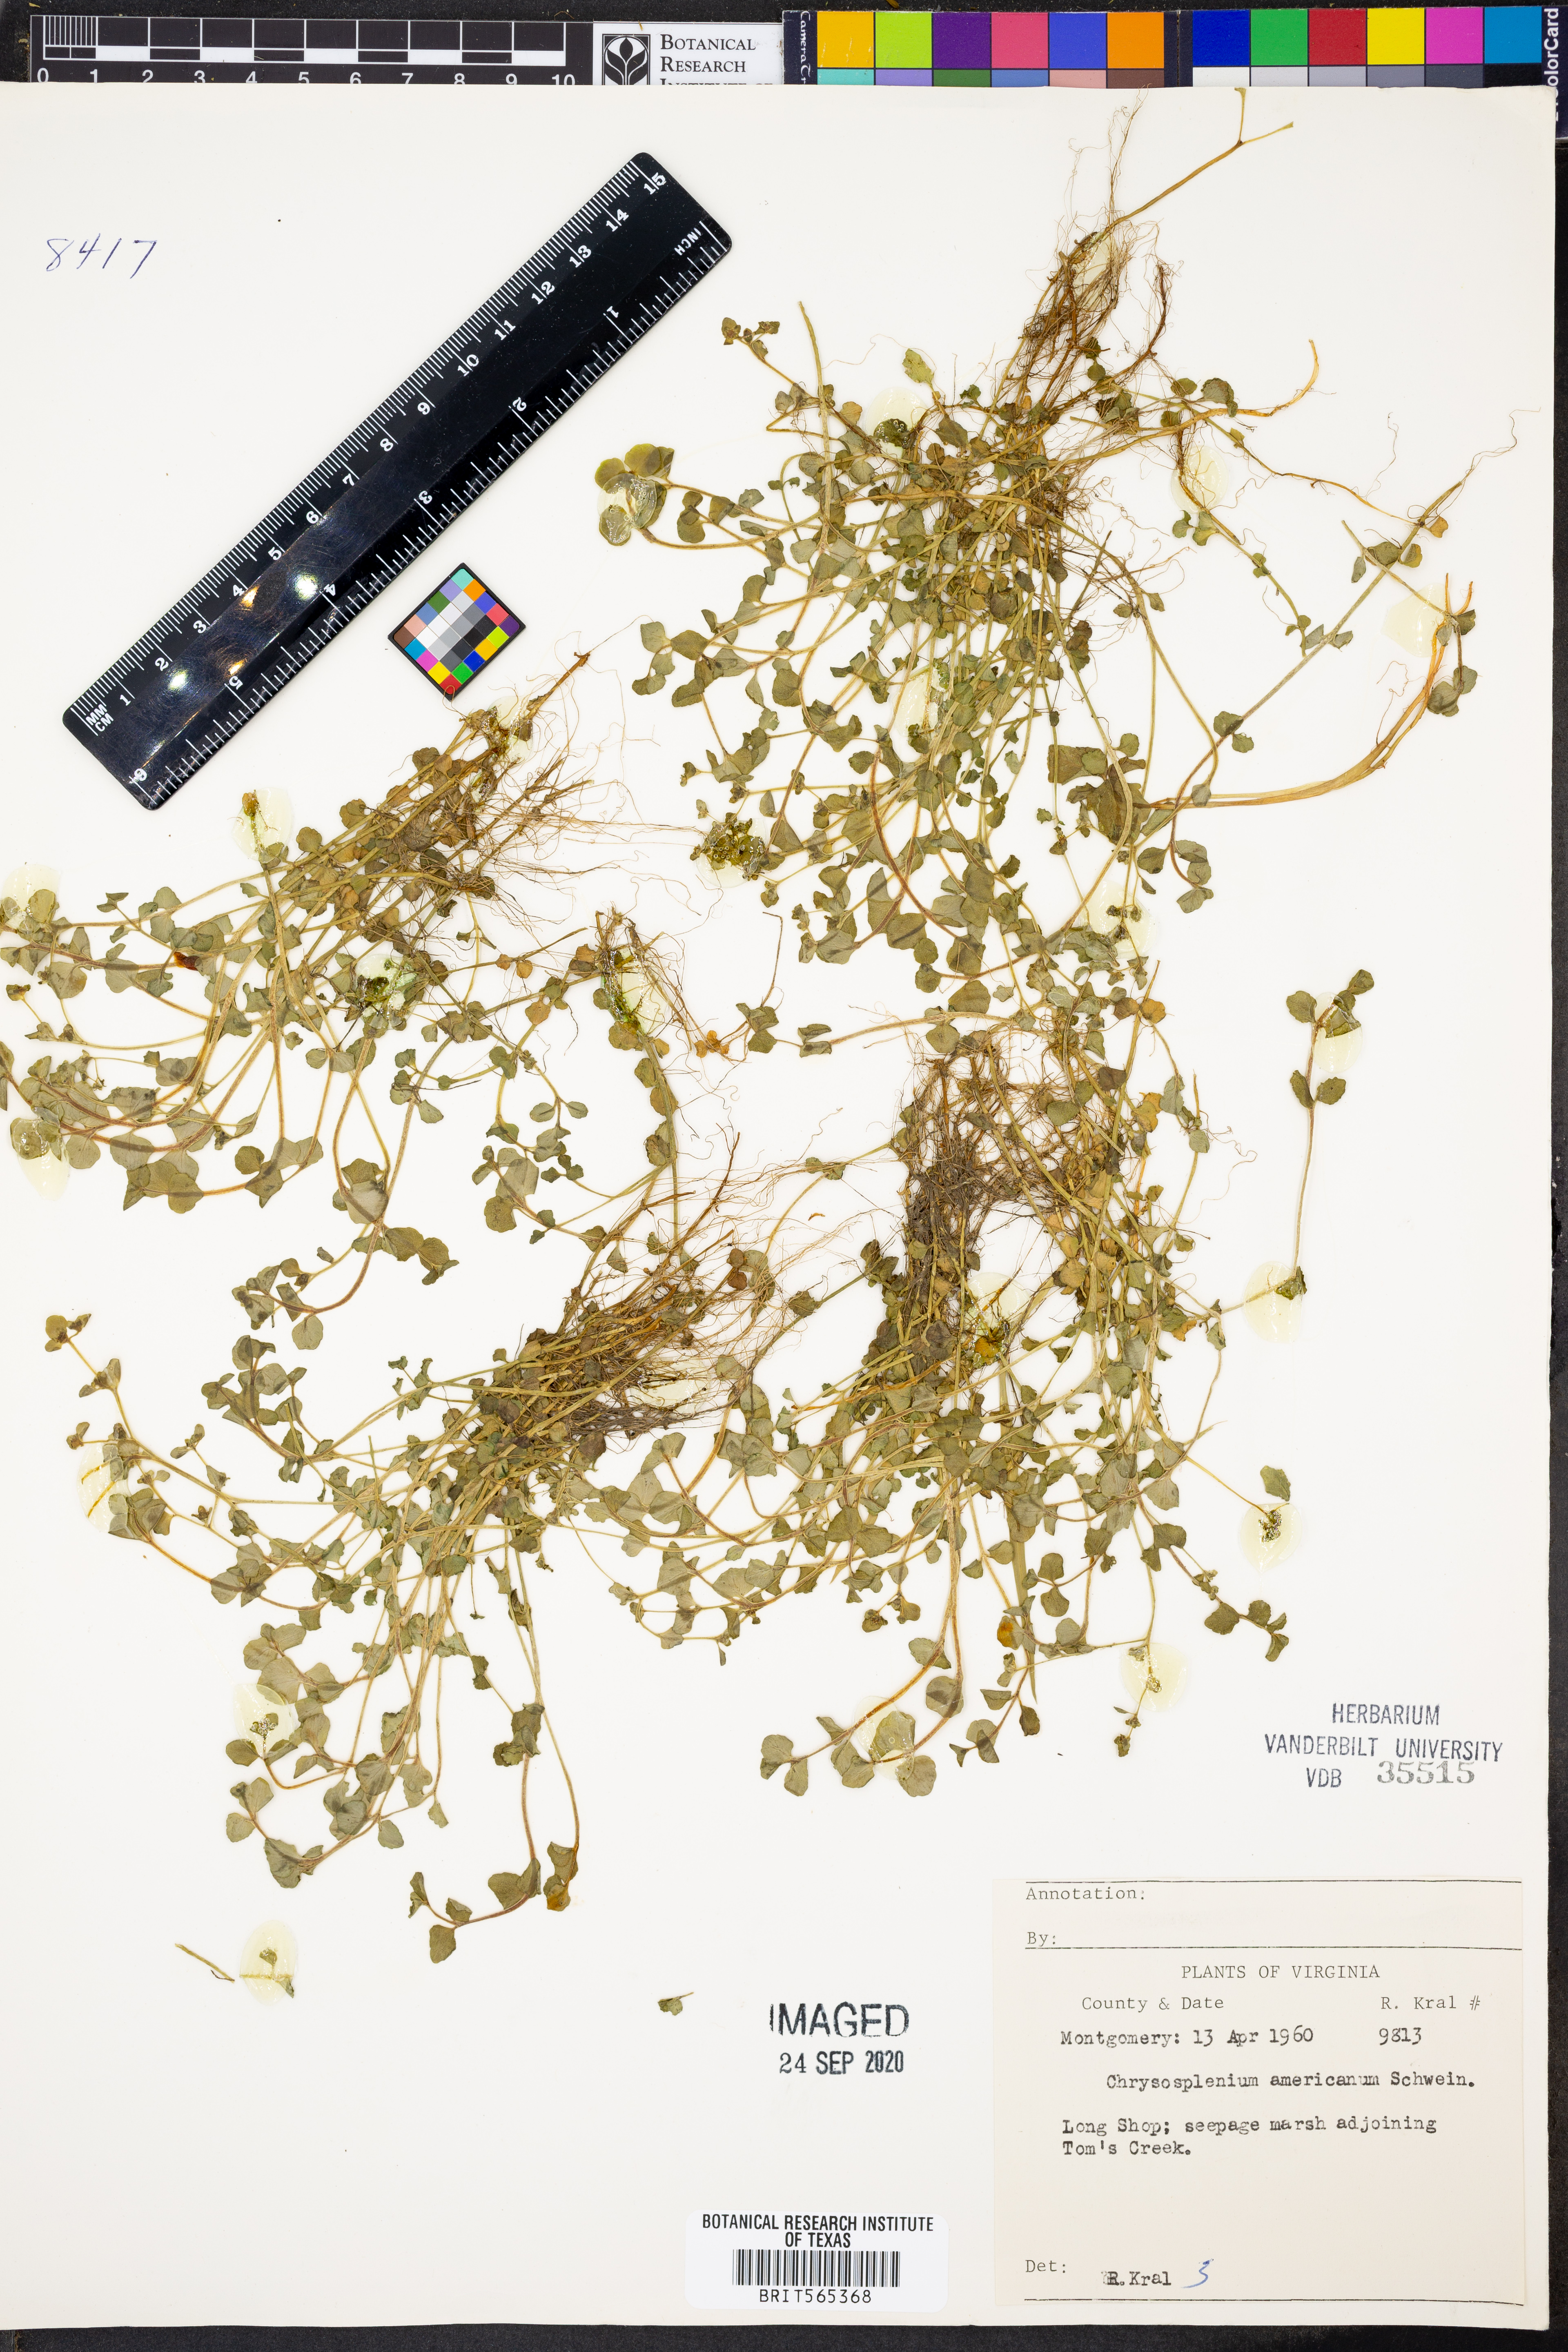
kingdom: Plantae
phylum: Tracheophyta
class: Magnoliopsida
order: Saxifragales
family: Saxifragaceae
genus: Chrysosplenium
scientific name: Chrysosplenium americanum
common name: American golden-saxifrage
